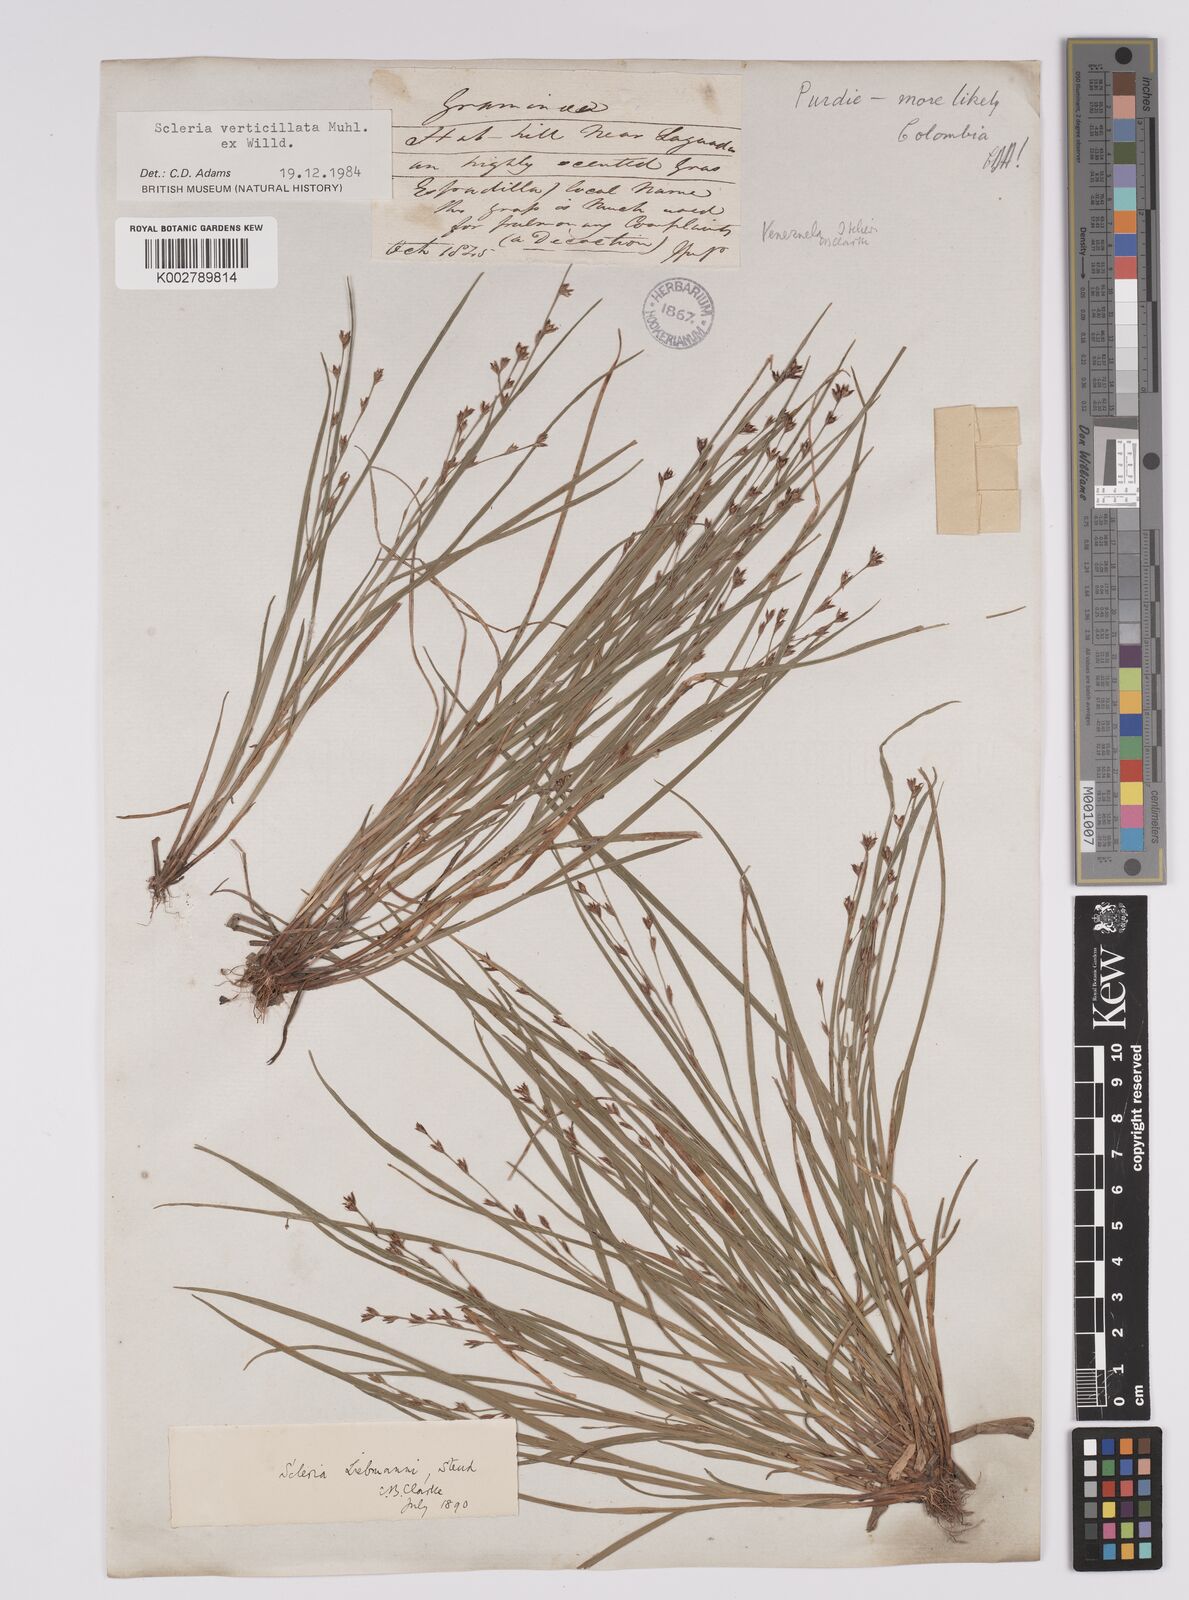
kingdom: Plantae
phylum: Tracheophyta
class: Liliopsida
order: Poales
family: Cyperaceae
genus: Scleria
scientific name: Scleria distans
